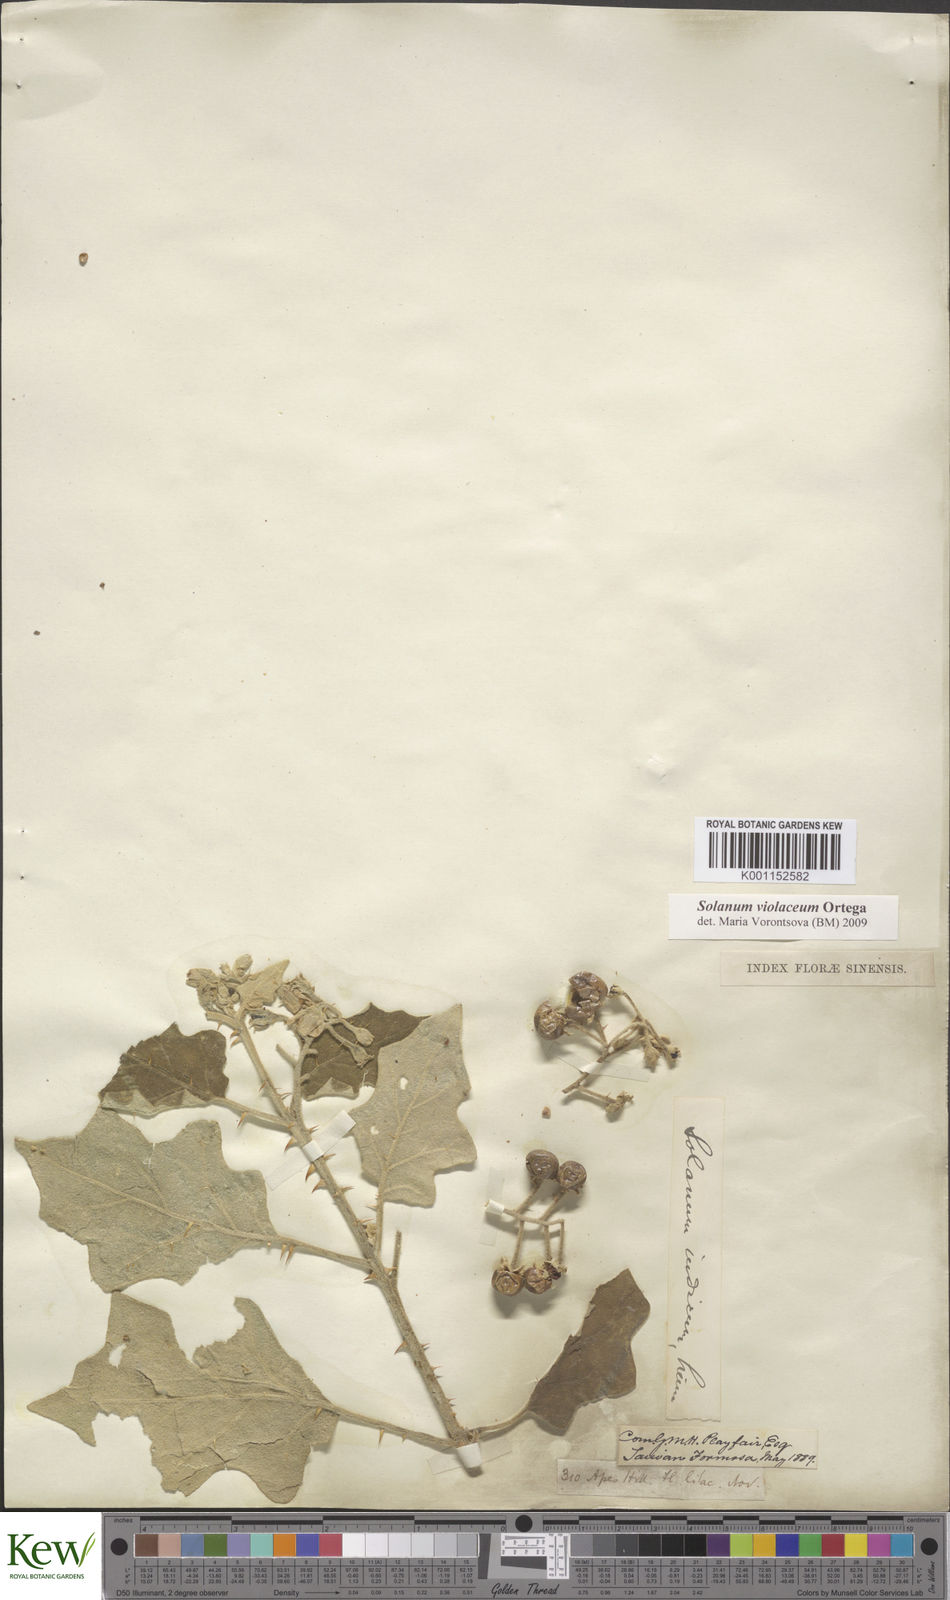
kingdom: Plantae
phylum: Tracheophyta
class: Magnoliopsida
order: Solanales
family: Solanaceae
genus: Solanum
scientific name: Solanum violaceum
